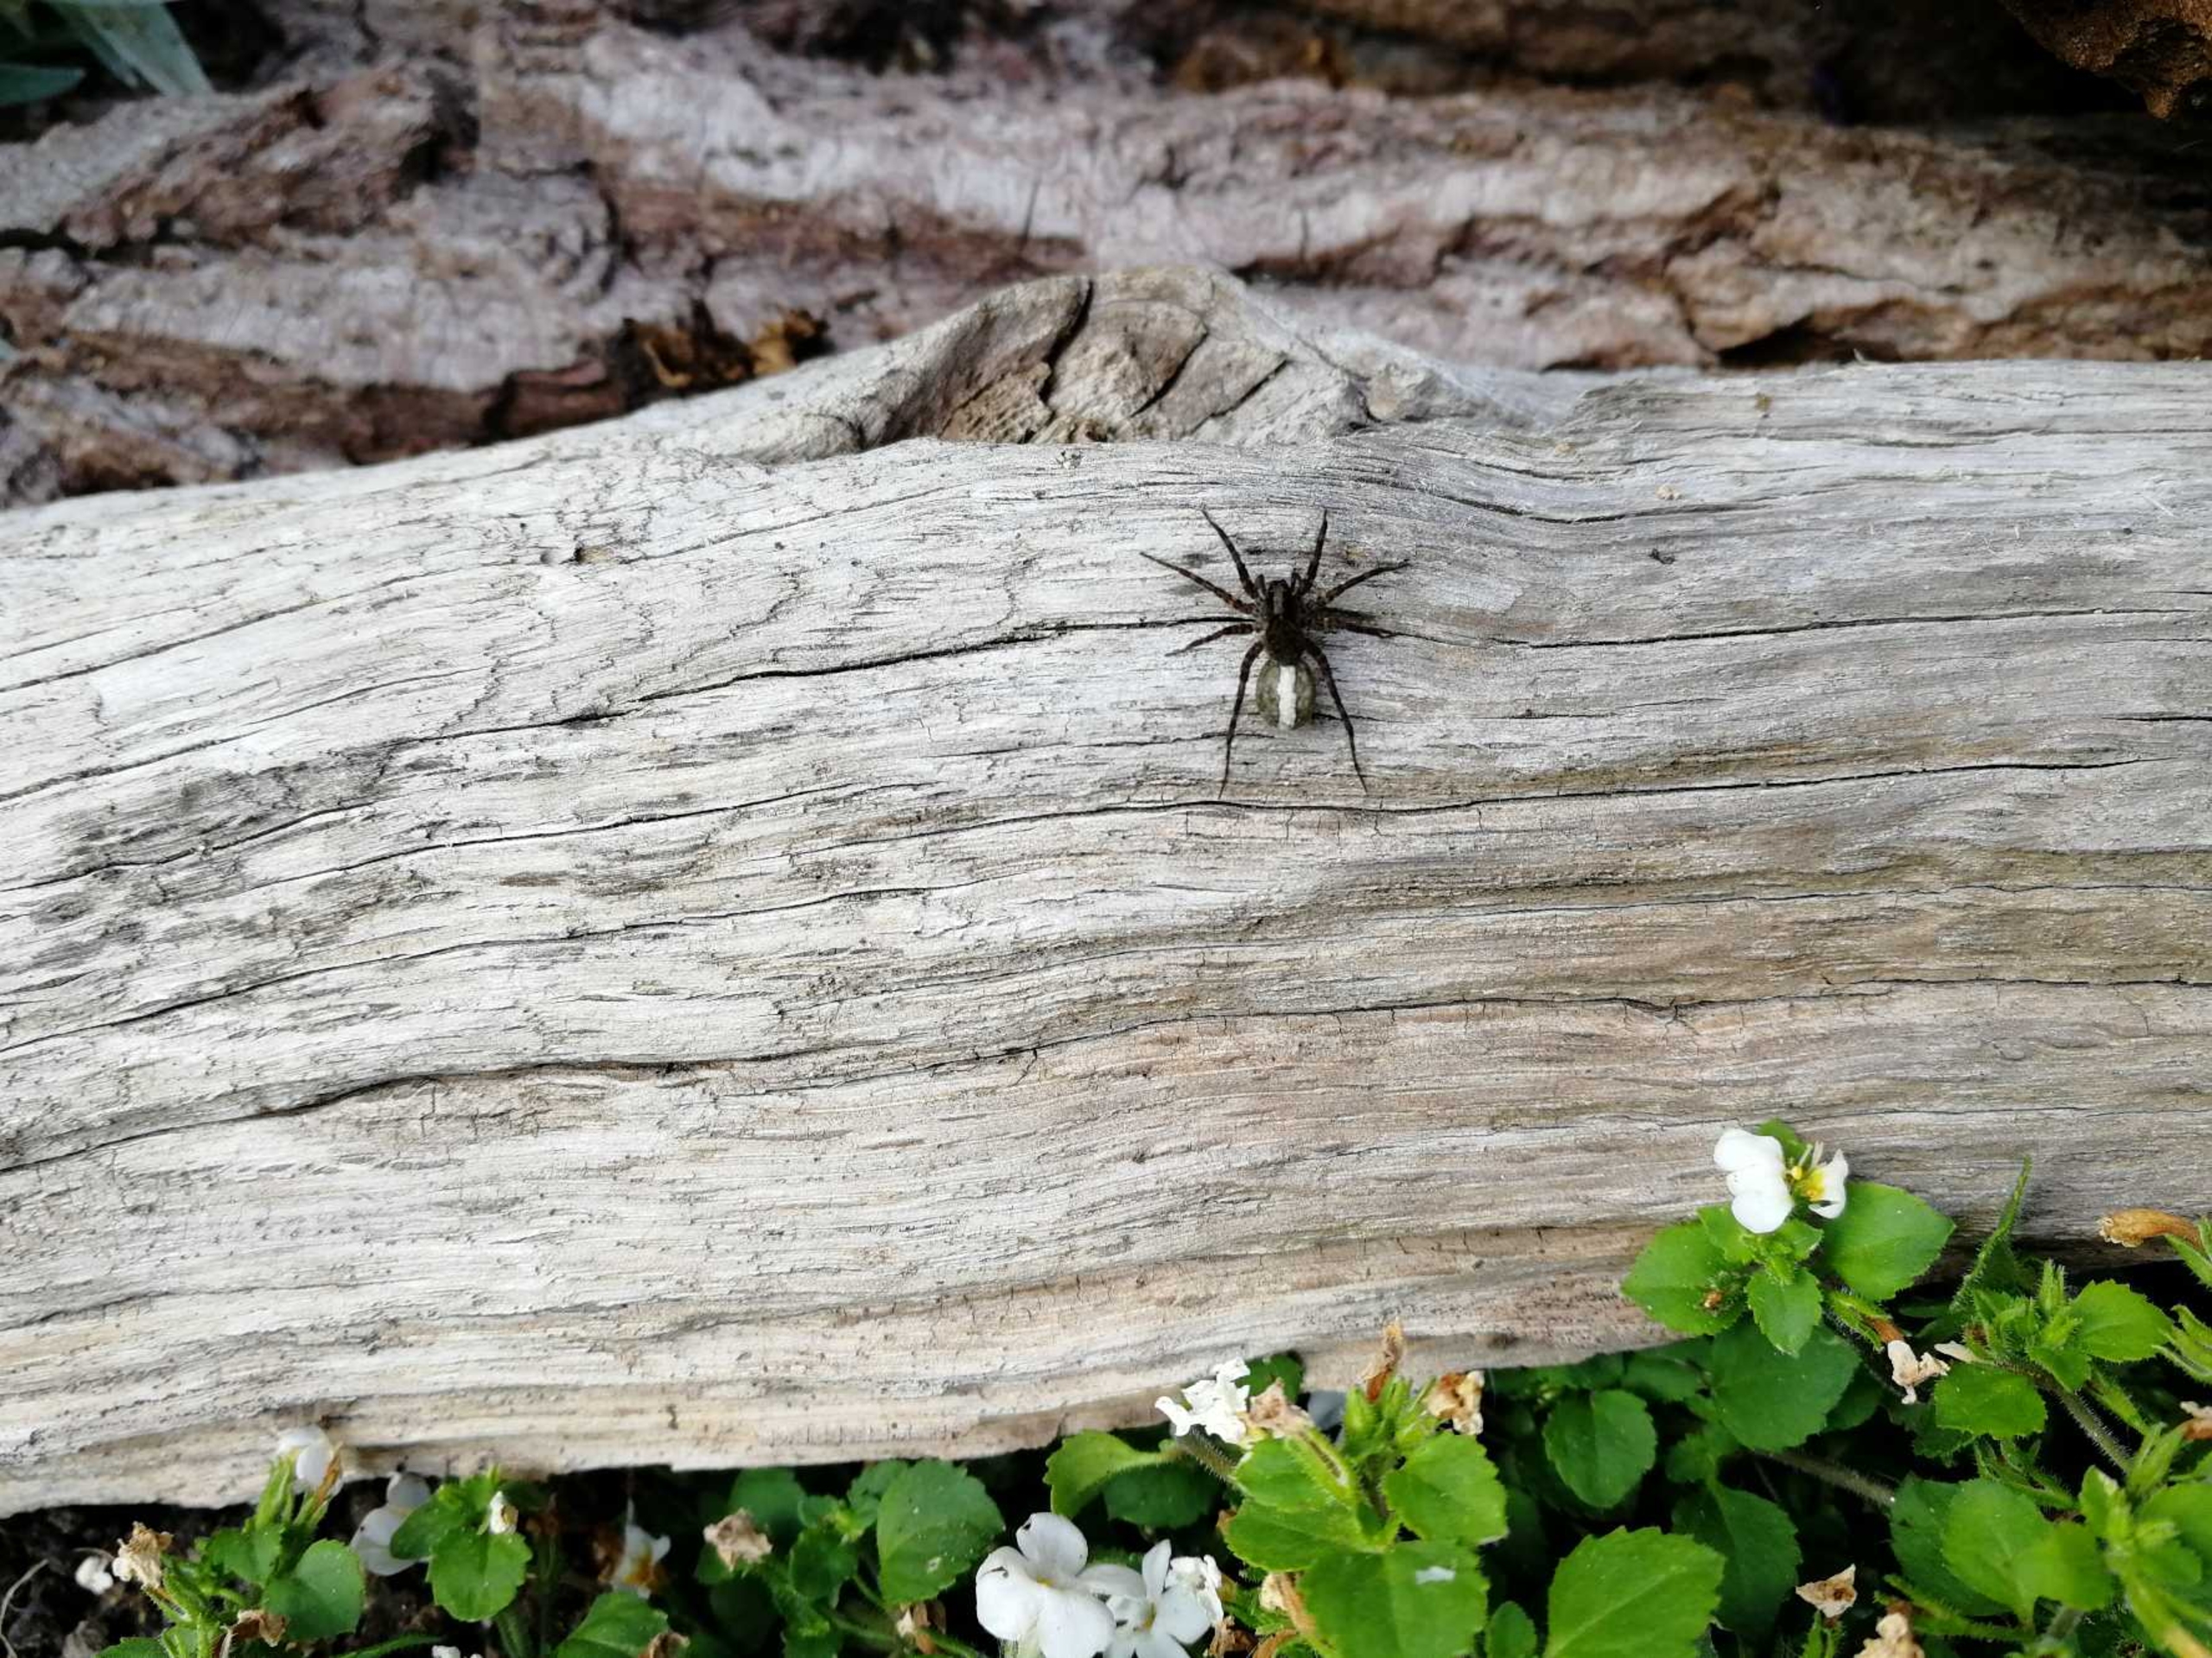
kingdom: Animalia
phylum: Arthropoda
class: Arachnida
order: Araneae
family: Lycosidae
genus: Pardosa
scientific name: Pardosa
